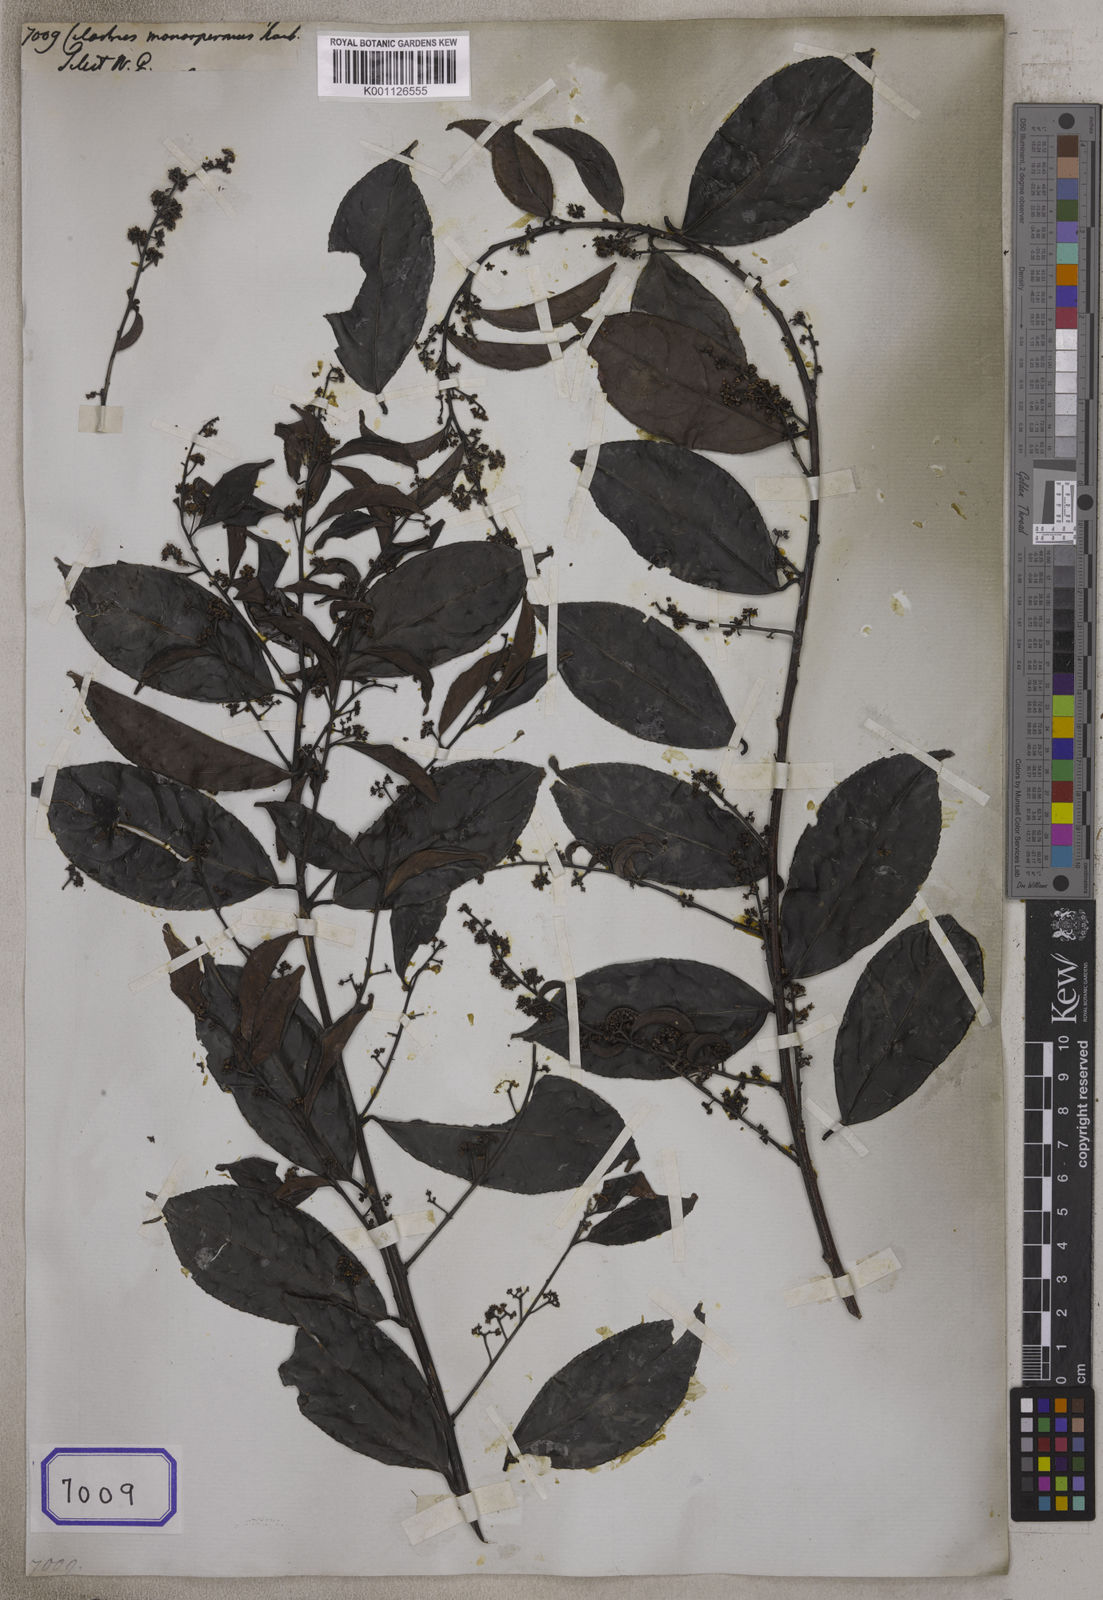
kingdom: Plantae
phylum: Tracheophyta
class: Magnoliopsida
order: Celastrales
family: Celastraceae
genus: Celastrus
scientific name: Celastrus monospermus
